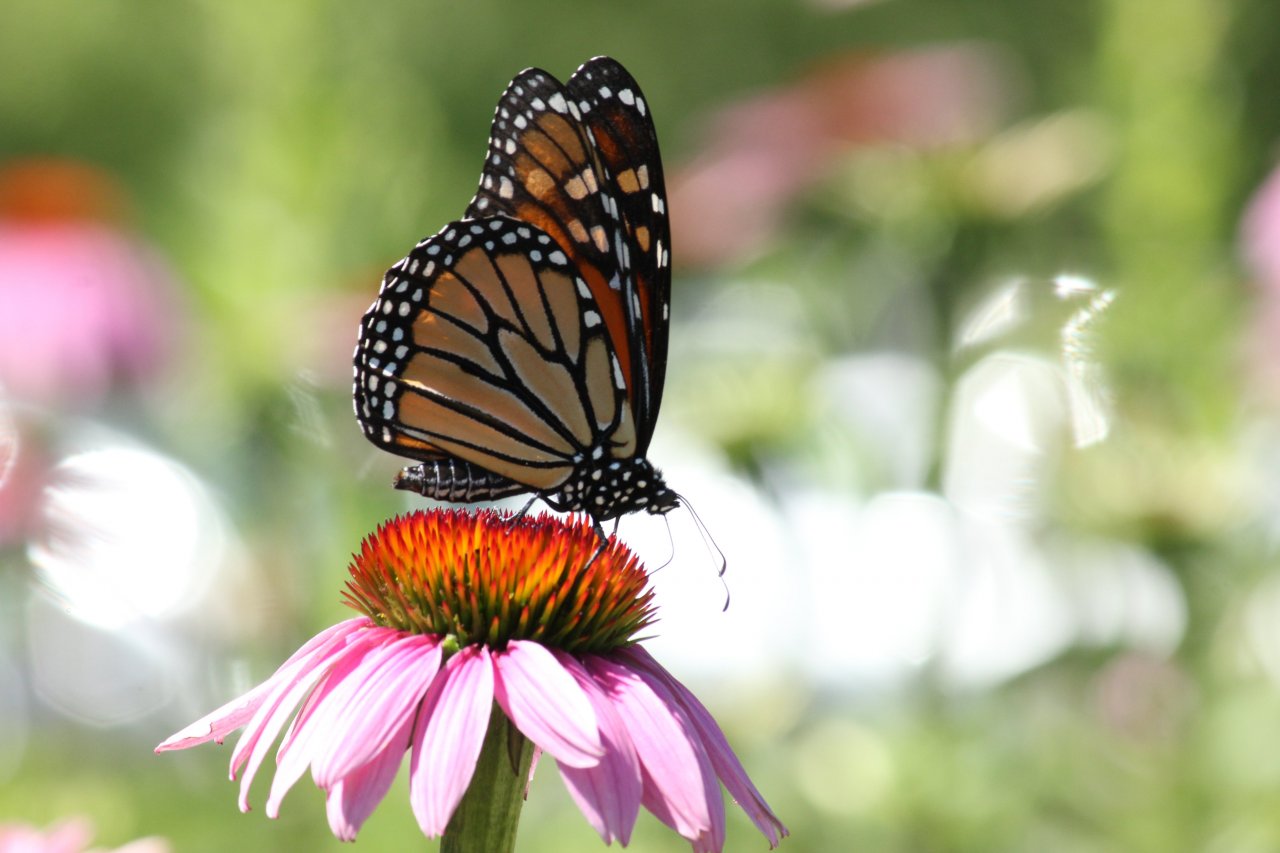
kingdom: Animalia
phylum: Arthropoda
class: Insecta
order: Lepidoptera
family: Nymphalidae
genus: Danaus
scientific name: Danaus plexippus
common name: Monarch
